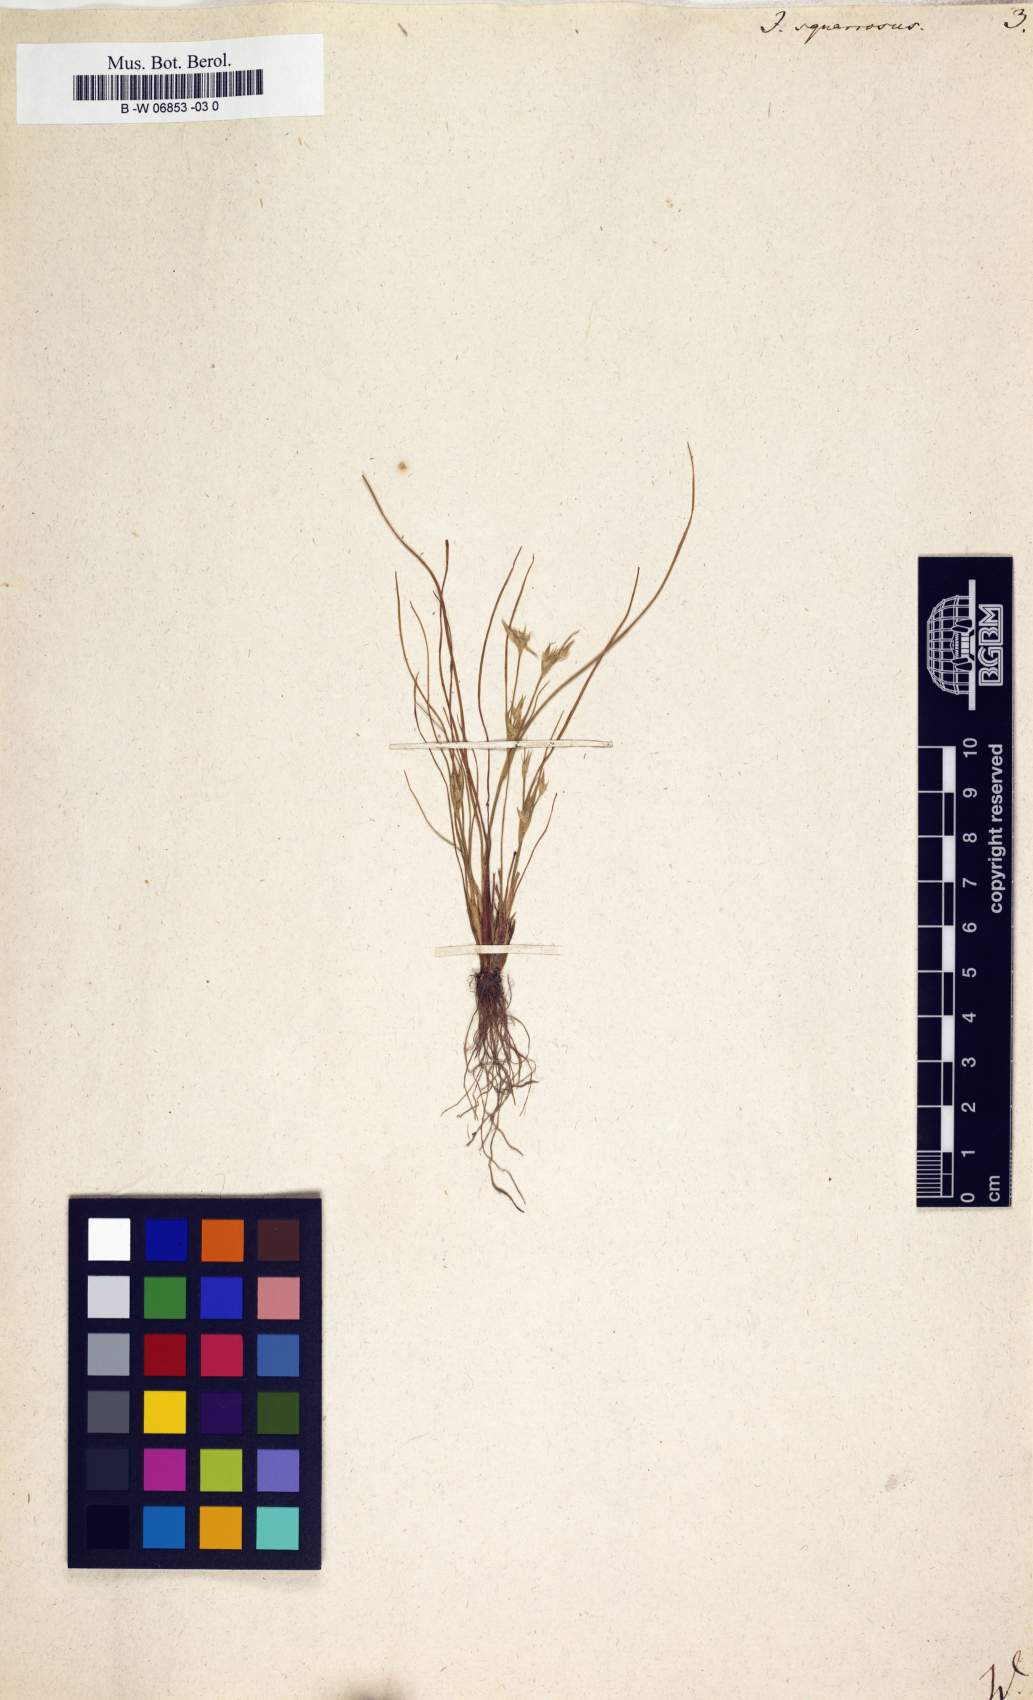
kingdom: Plantae
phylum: Tracheophyta
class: Liliopsida
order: Poales
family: Juncaceae
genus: Juncus
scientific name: Juncus squarrosus
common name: Heath rush
